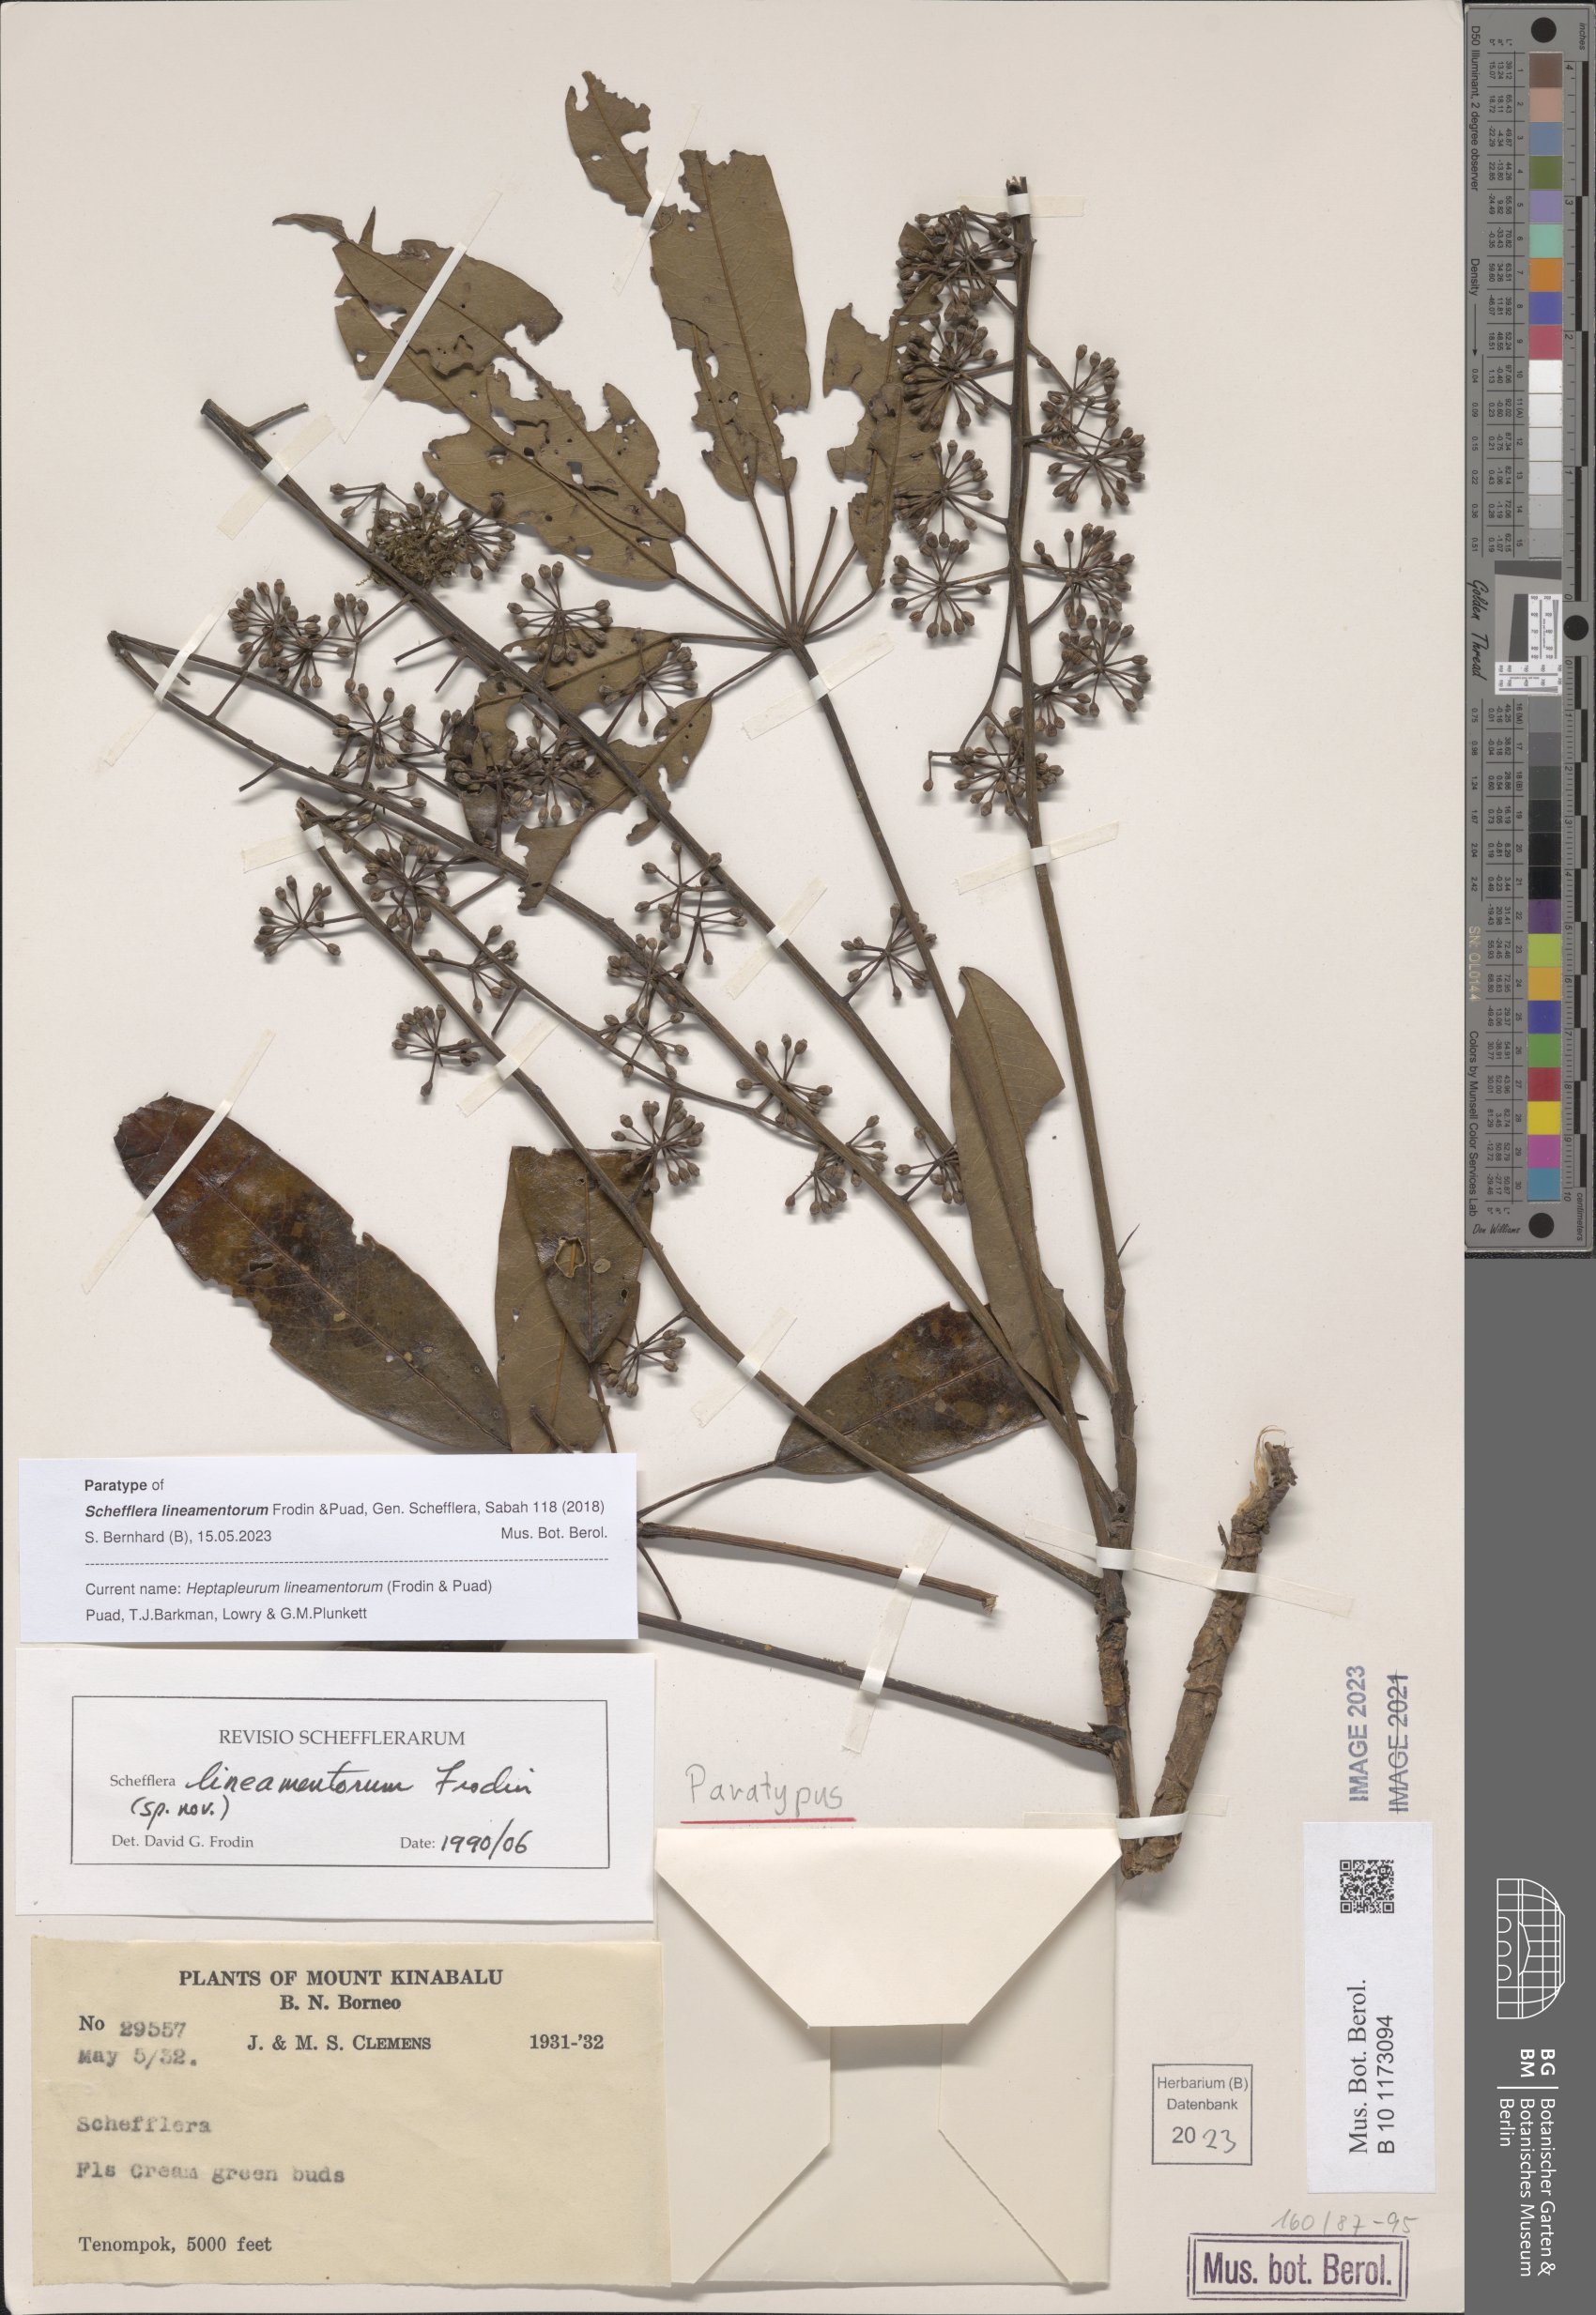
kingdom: Plantae
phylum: Tracheophyta
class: Magnoliopsida
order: Apiales
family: Araliaceae
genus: Heptapleurum
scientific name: Heptapleurum lineamentorum
